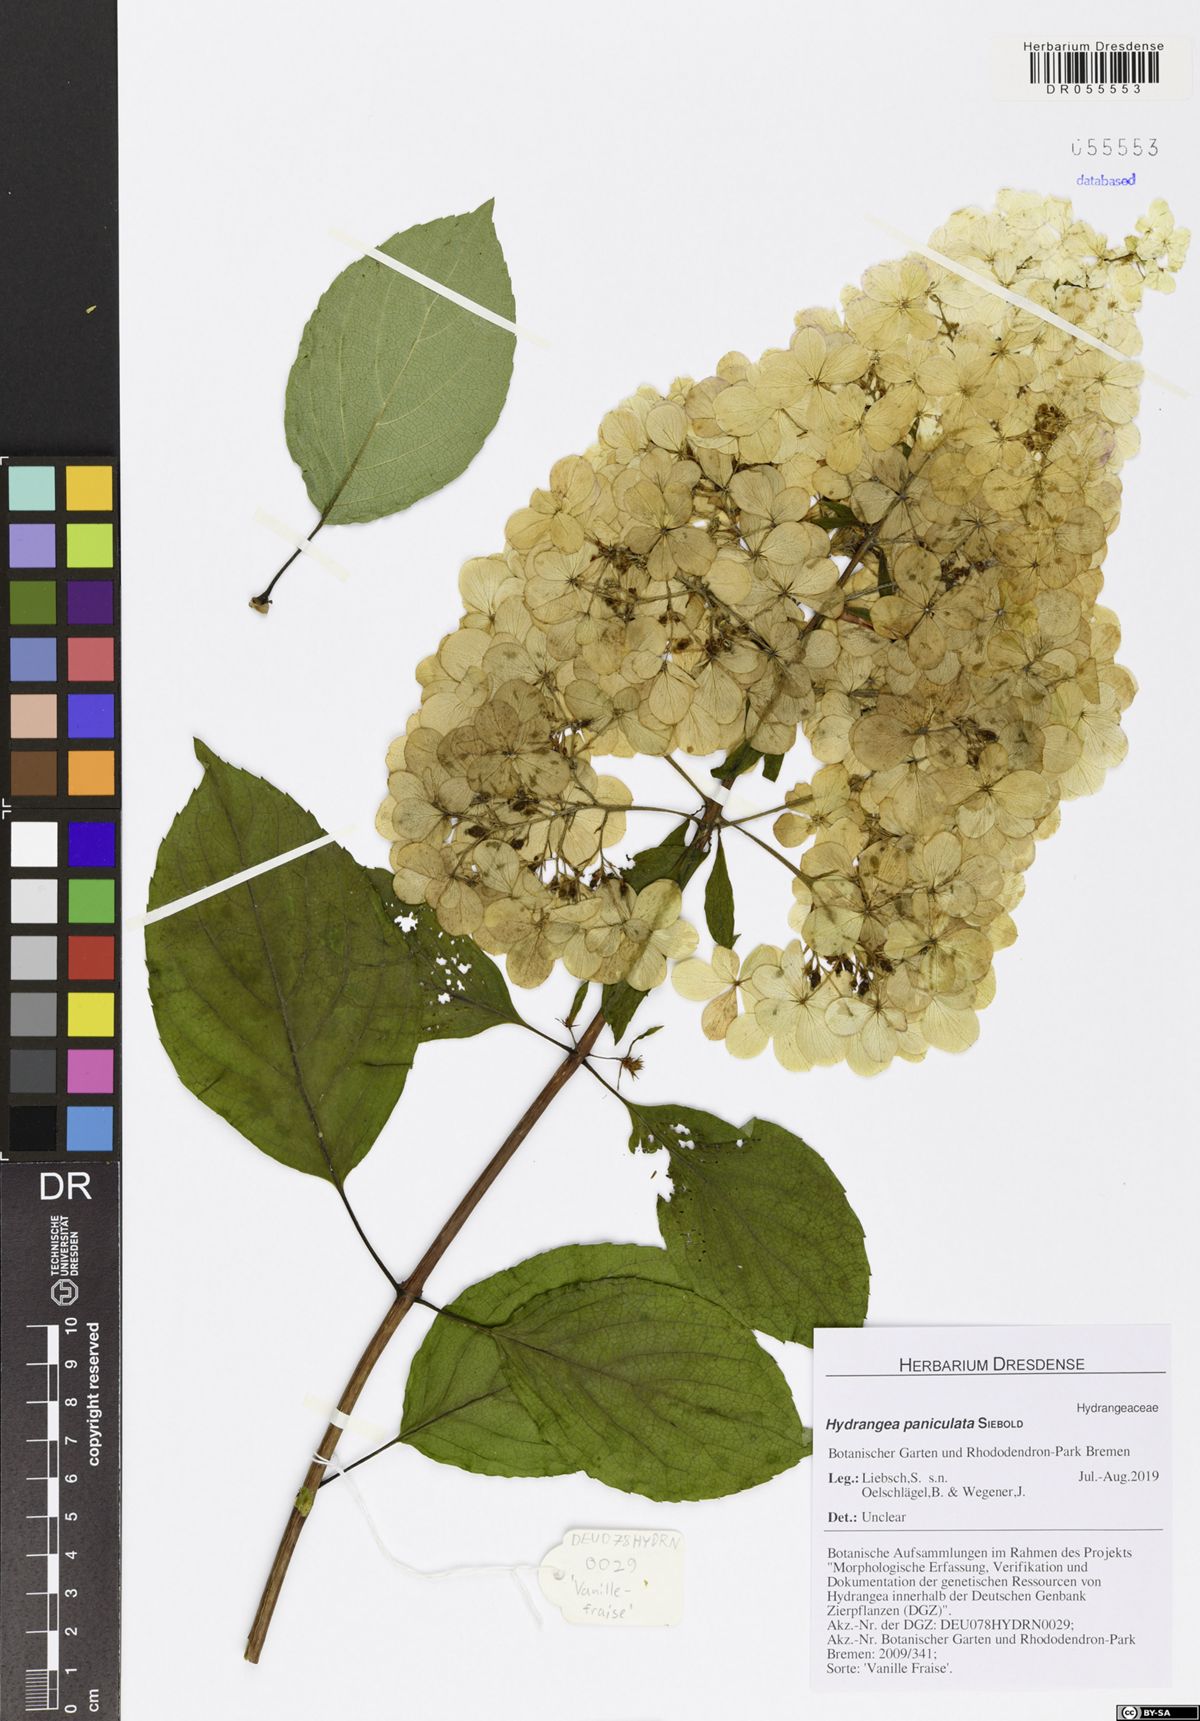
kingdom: Plantae
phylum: Tracheophyta
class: Magnoliopsida
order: Cornales
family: Hydrangeaceae
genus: Hydrangea
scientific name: Hydrangea paniculata
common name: Panicled hydrangea
